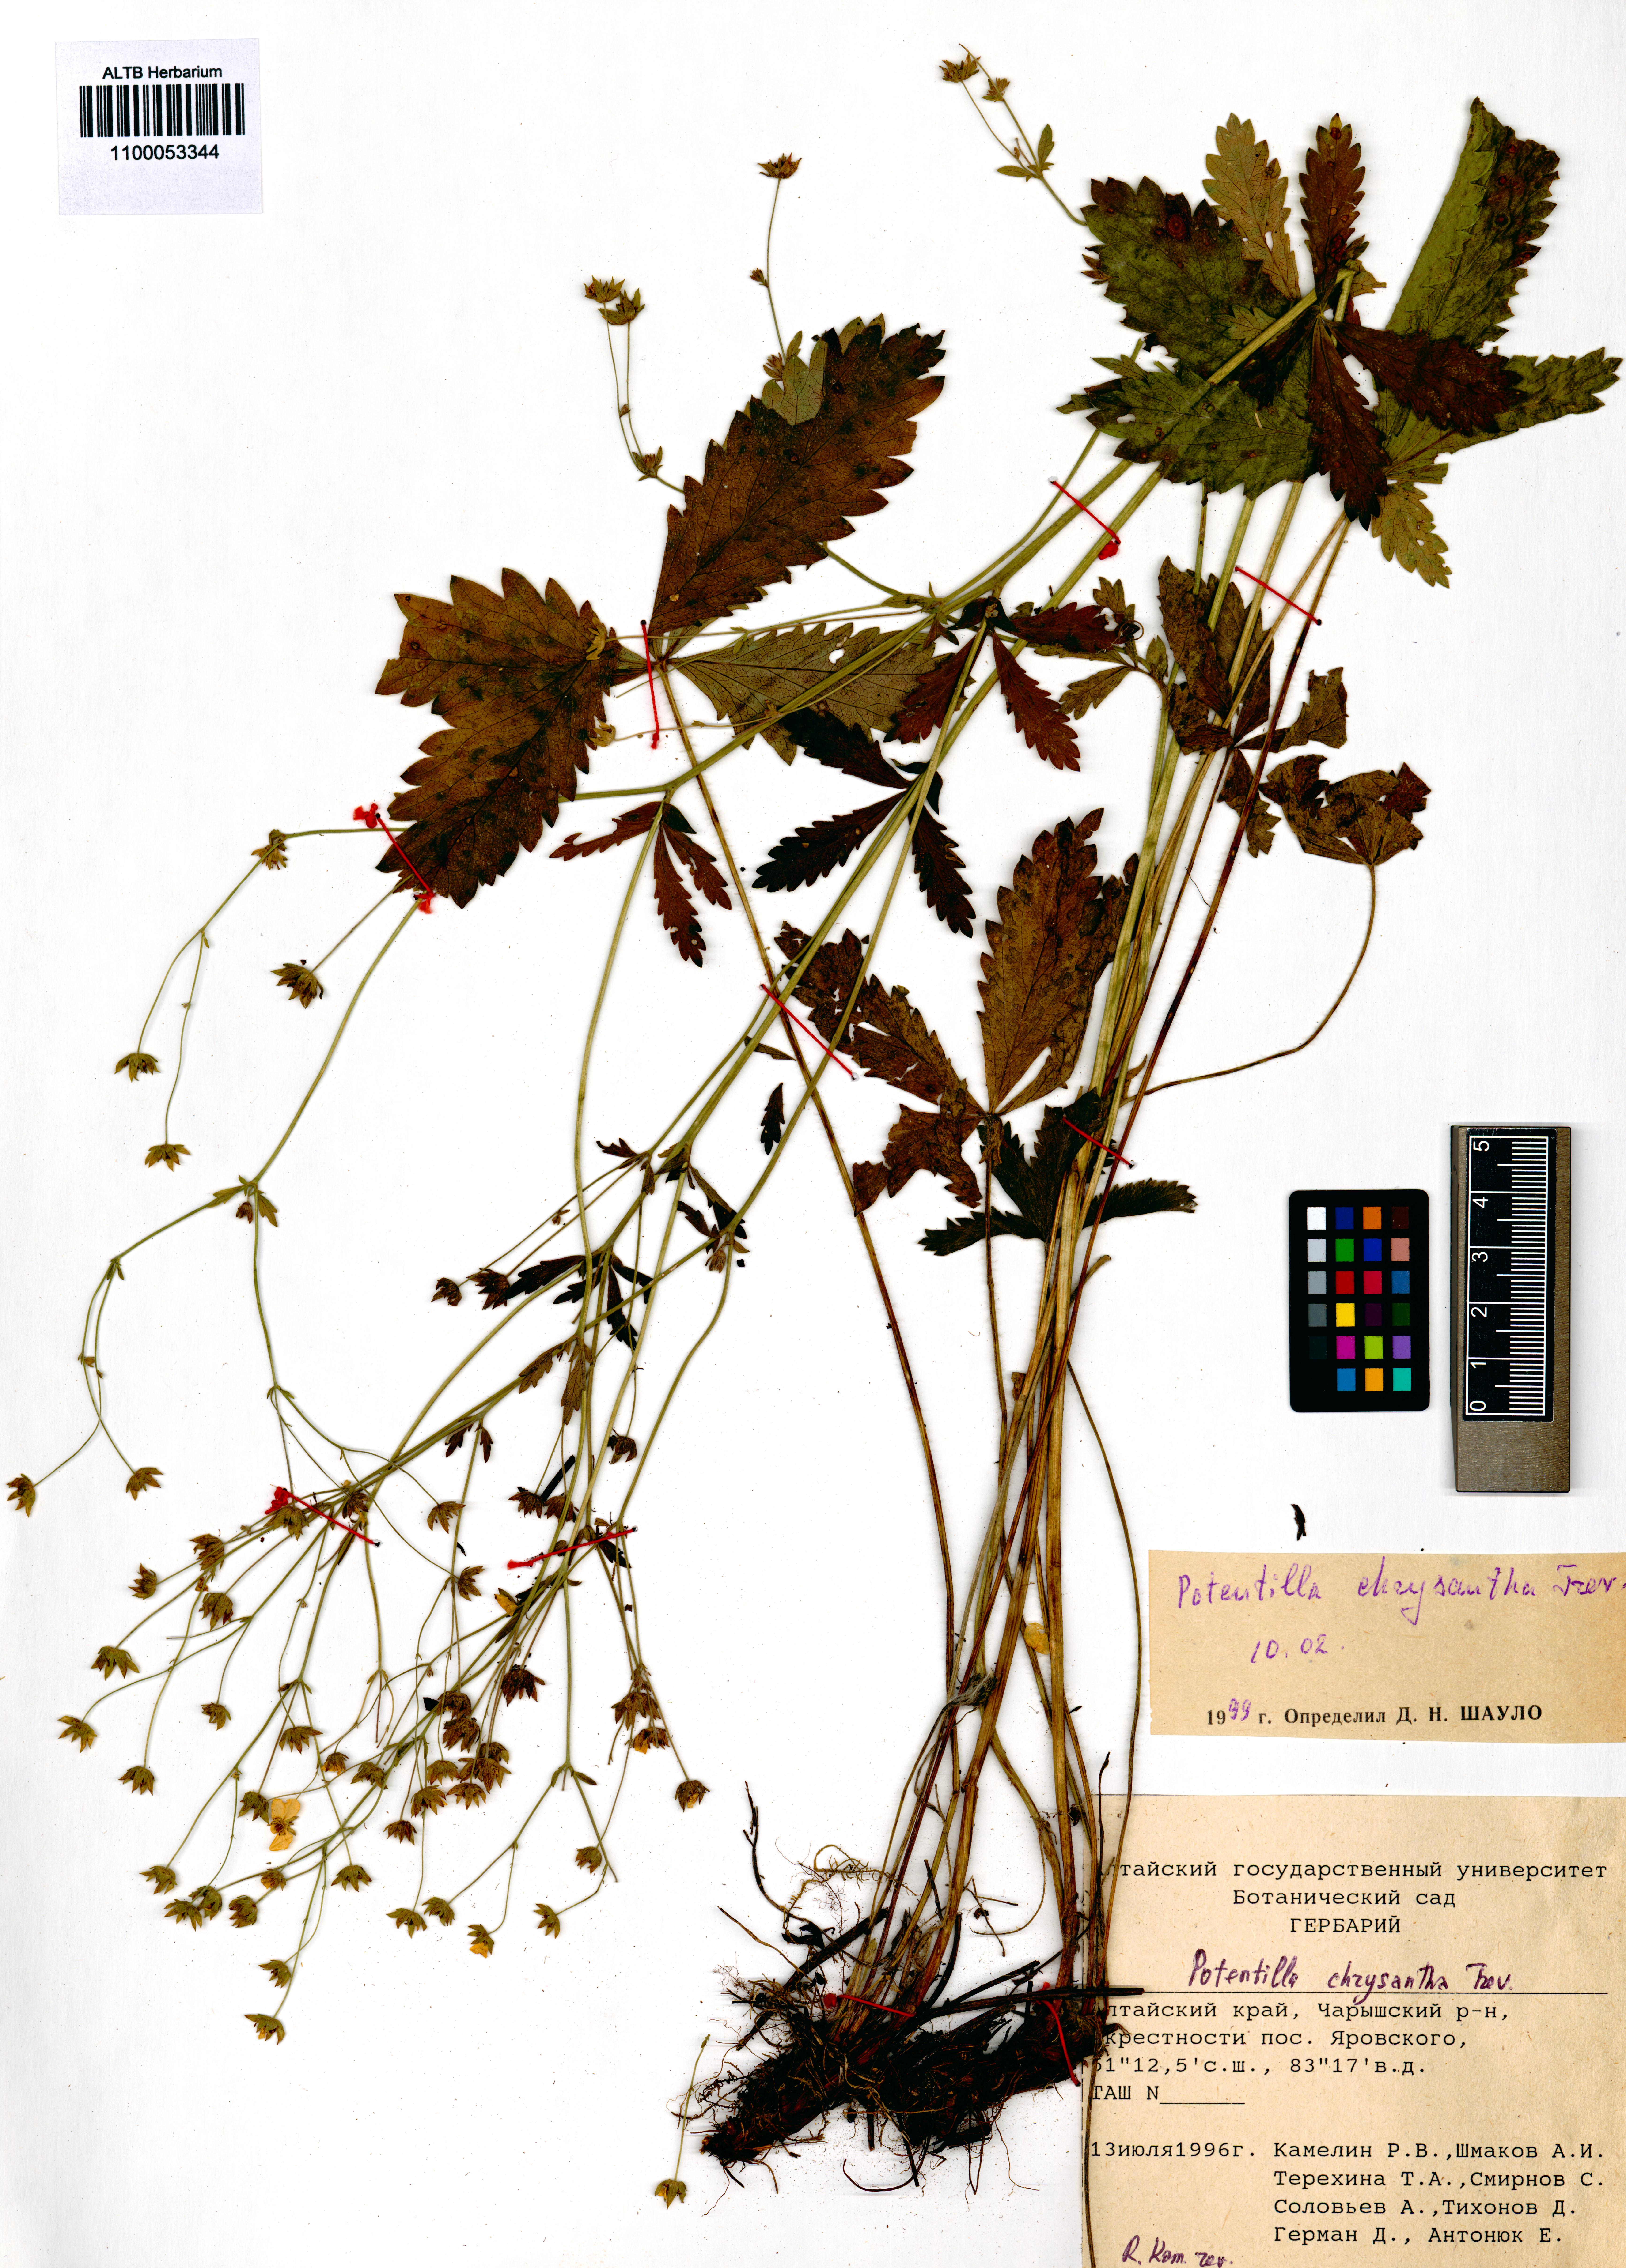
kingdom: Plantae
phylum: Tracheophyta
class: Magnoliopsida
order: Rosales
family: Rosaceae
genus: Potentilla
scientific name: Potentilla chrysantha
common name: Thuringian cinquefoil
